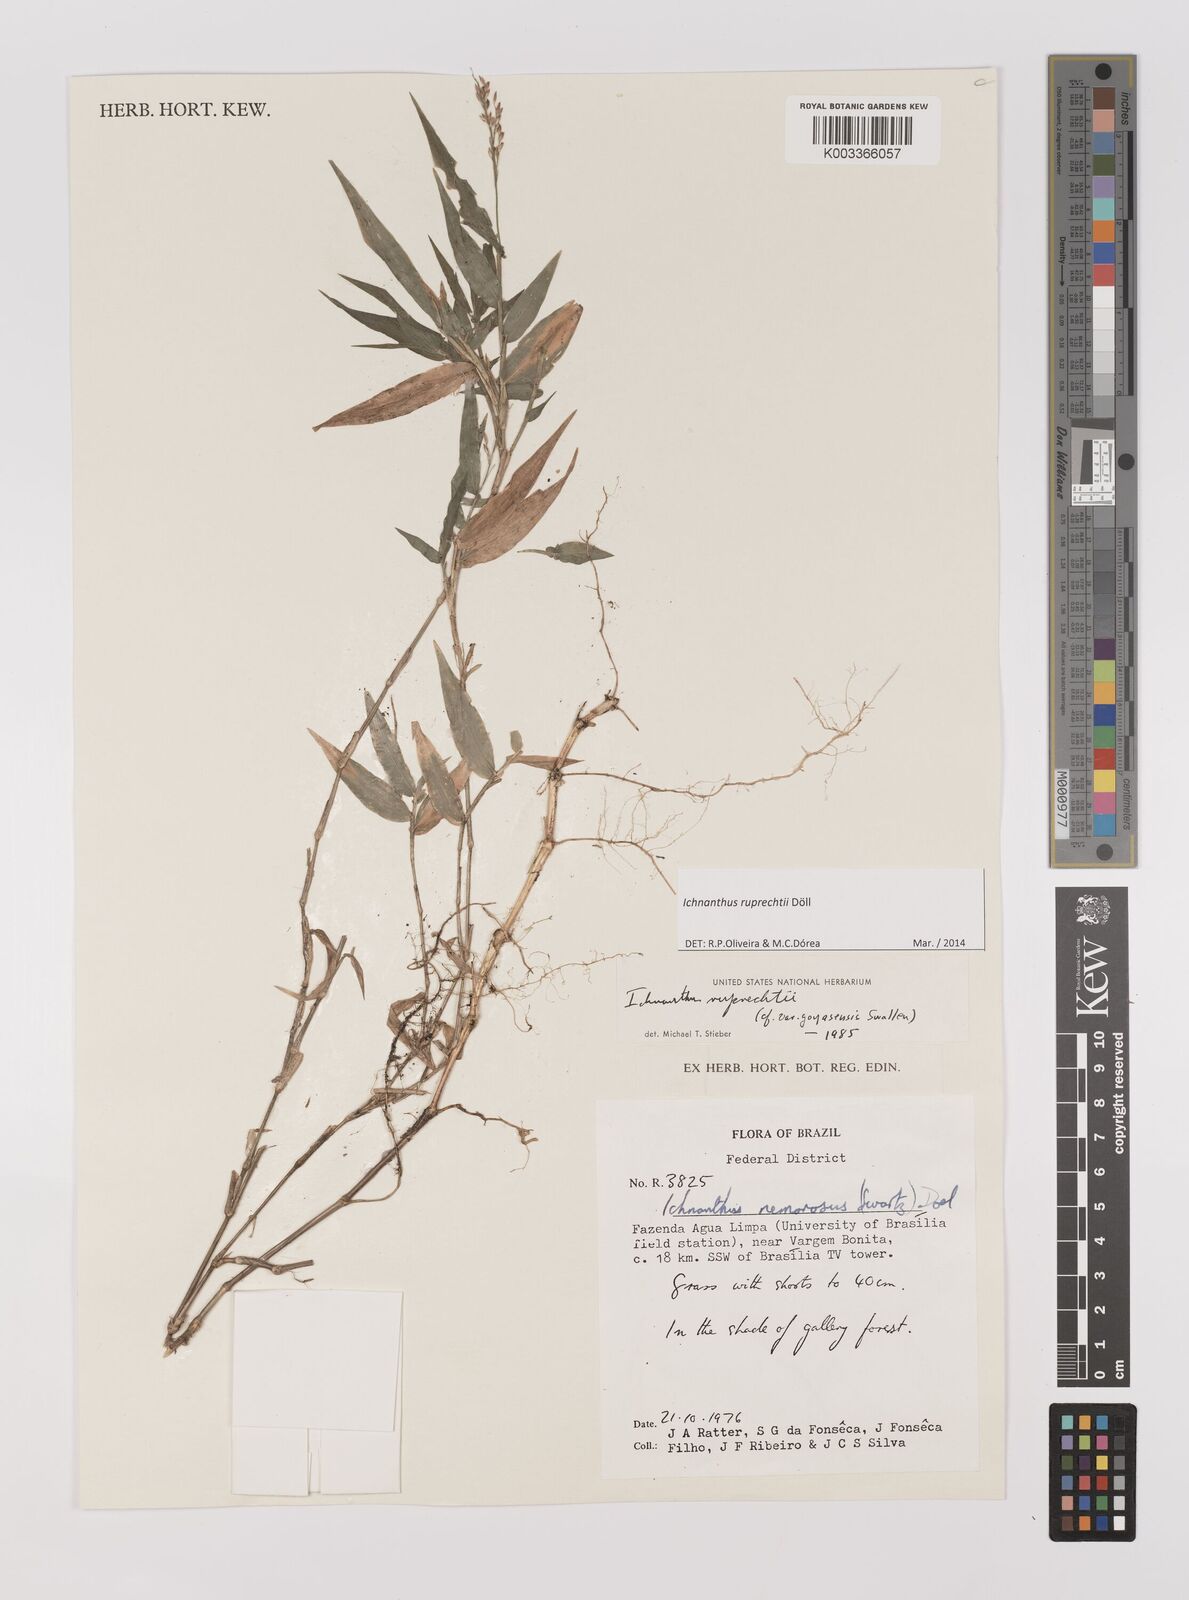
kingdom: Plantae
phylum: Tracheophyta
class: Liliopsida
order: Poales
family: Poaceae
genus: Ichnanthus
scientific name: Ichnanthus ruprechtii
